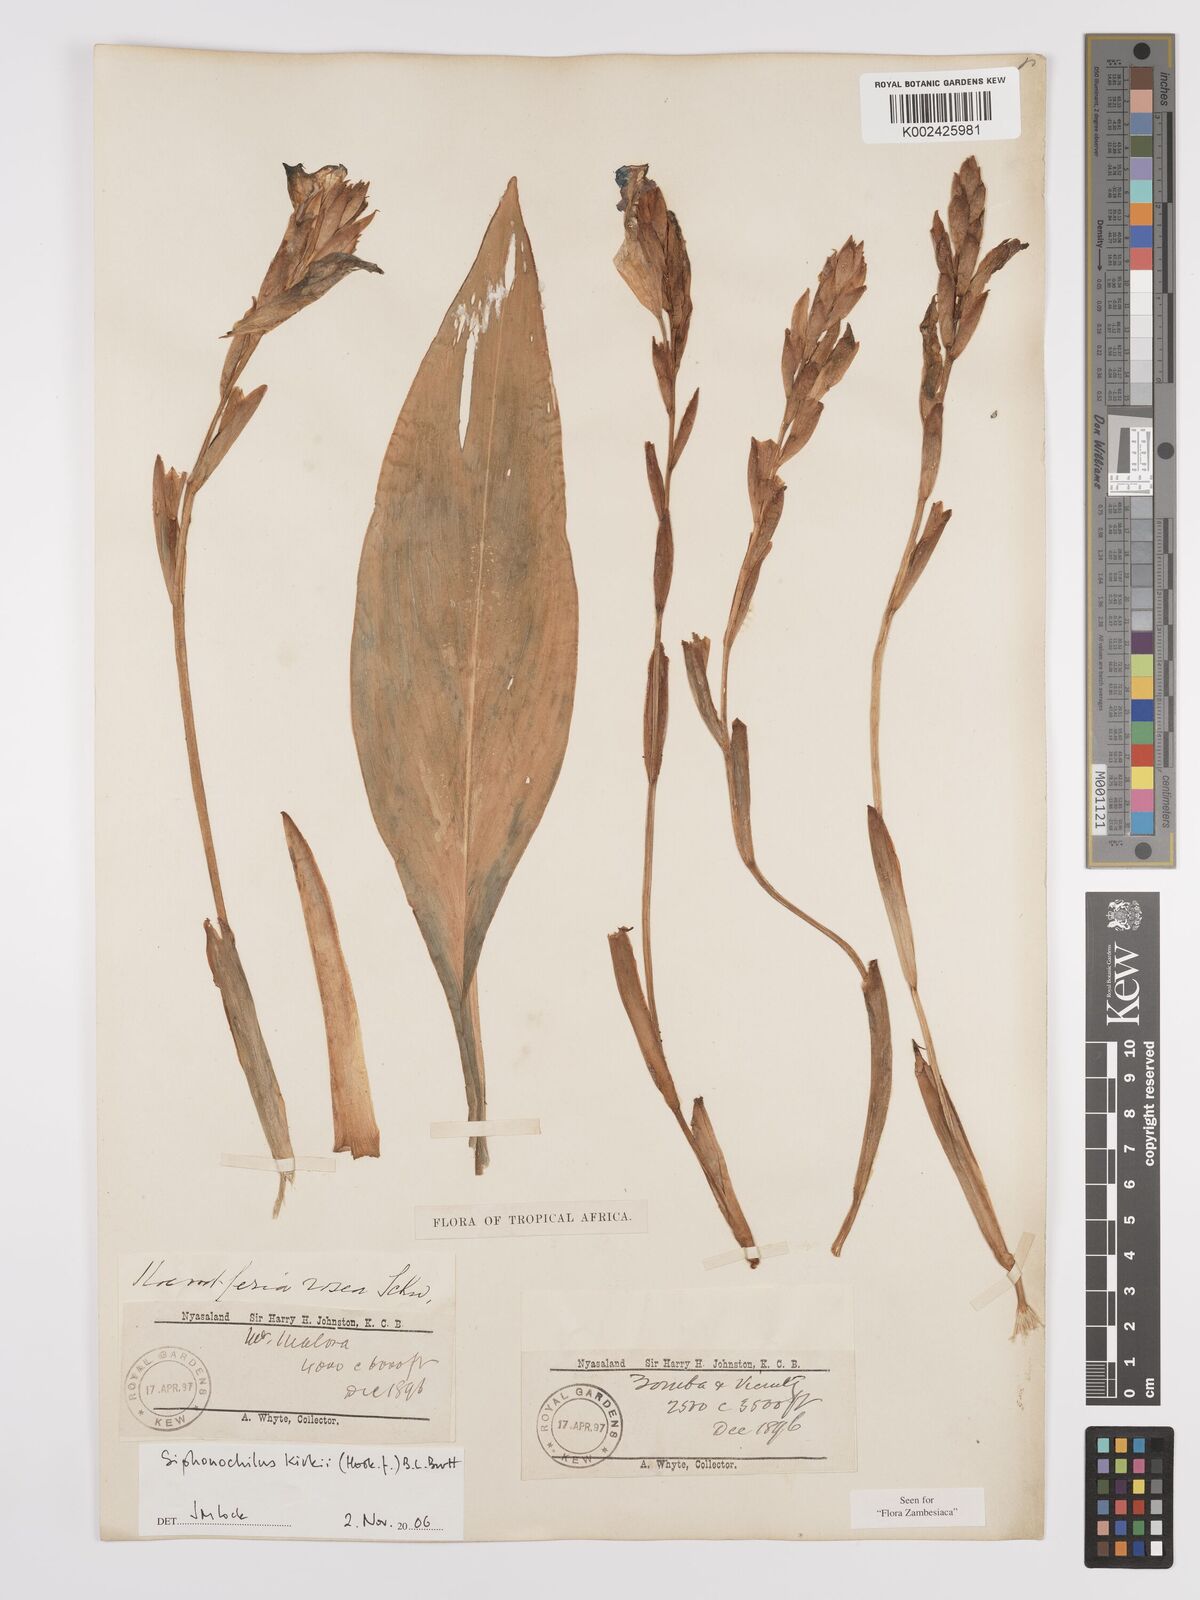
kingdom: Plantae
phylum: Tracheophyta
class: Liliopsida
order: Zingiberales
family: Zingiberaceae
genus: Siphonochilus
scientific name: Siphonochilus kirkii
